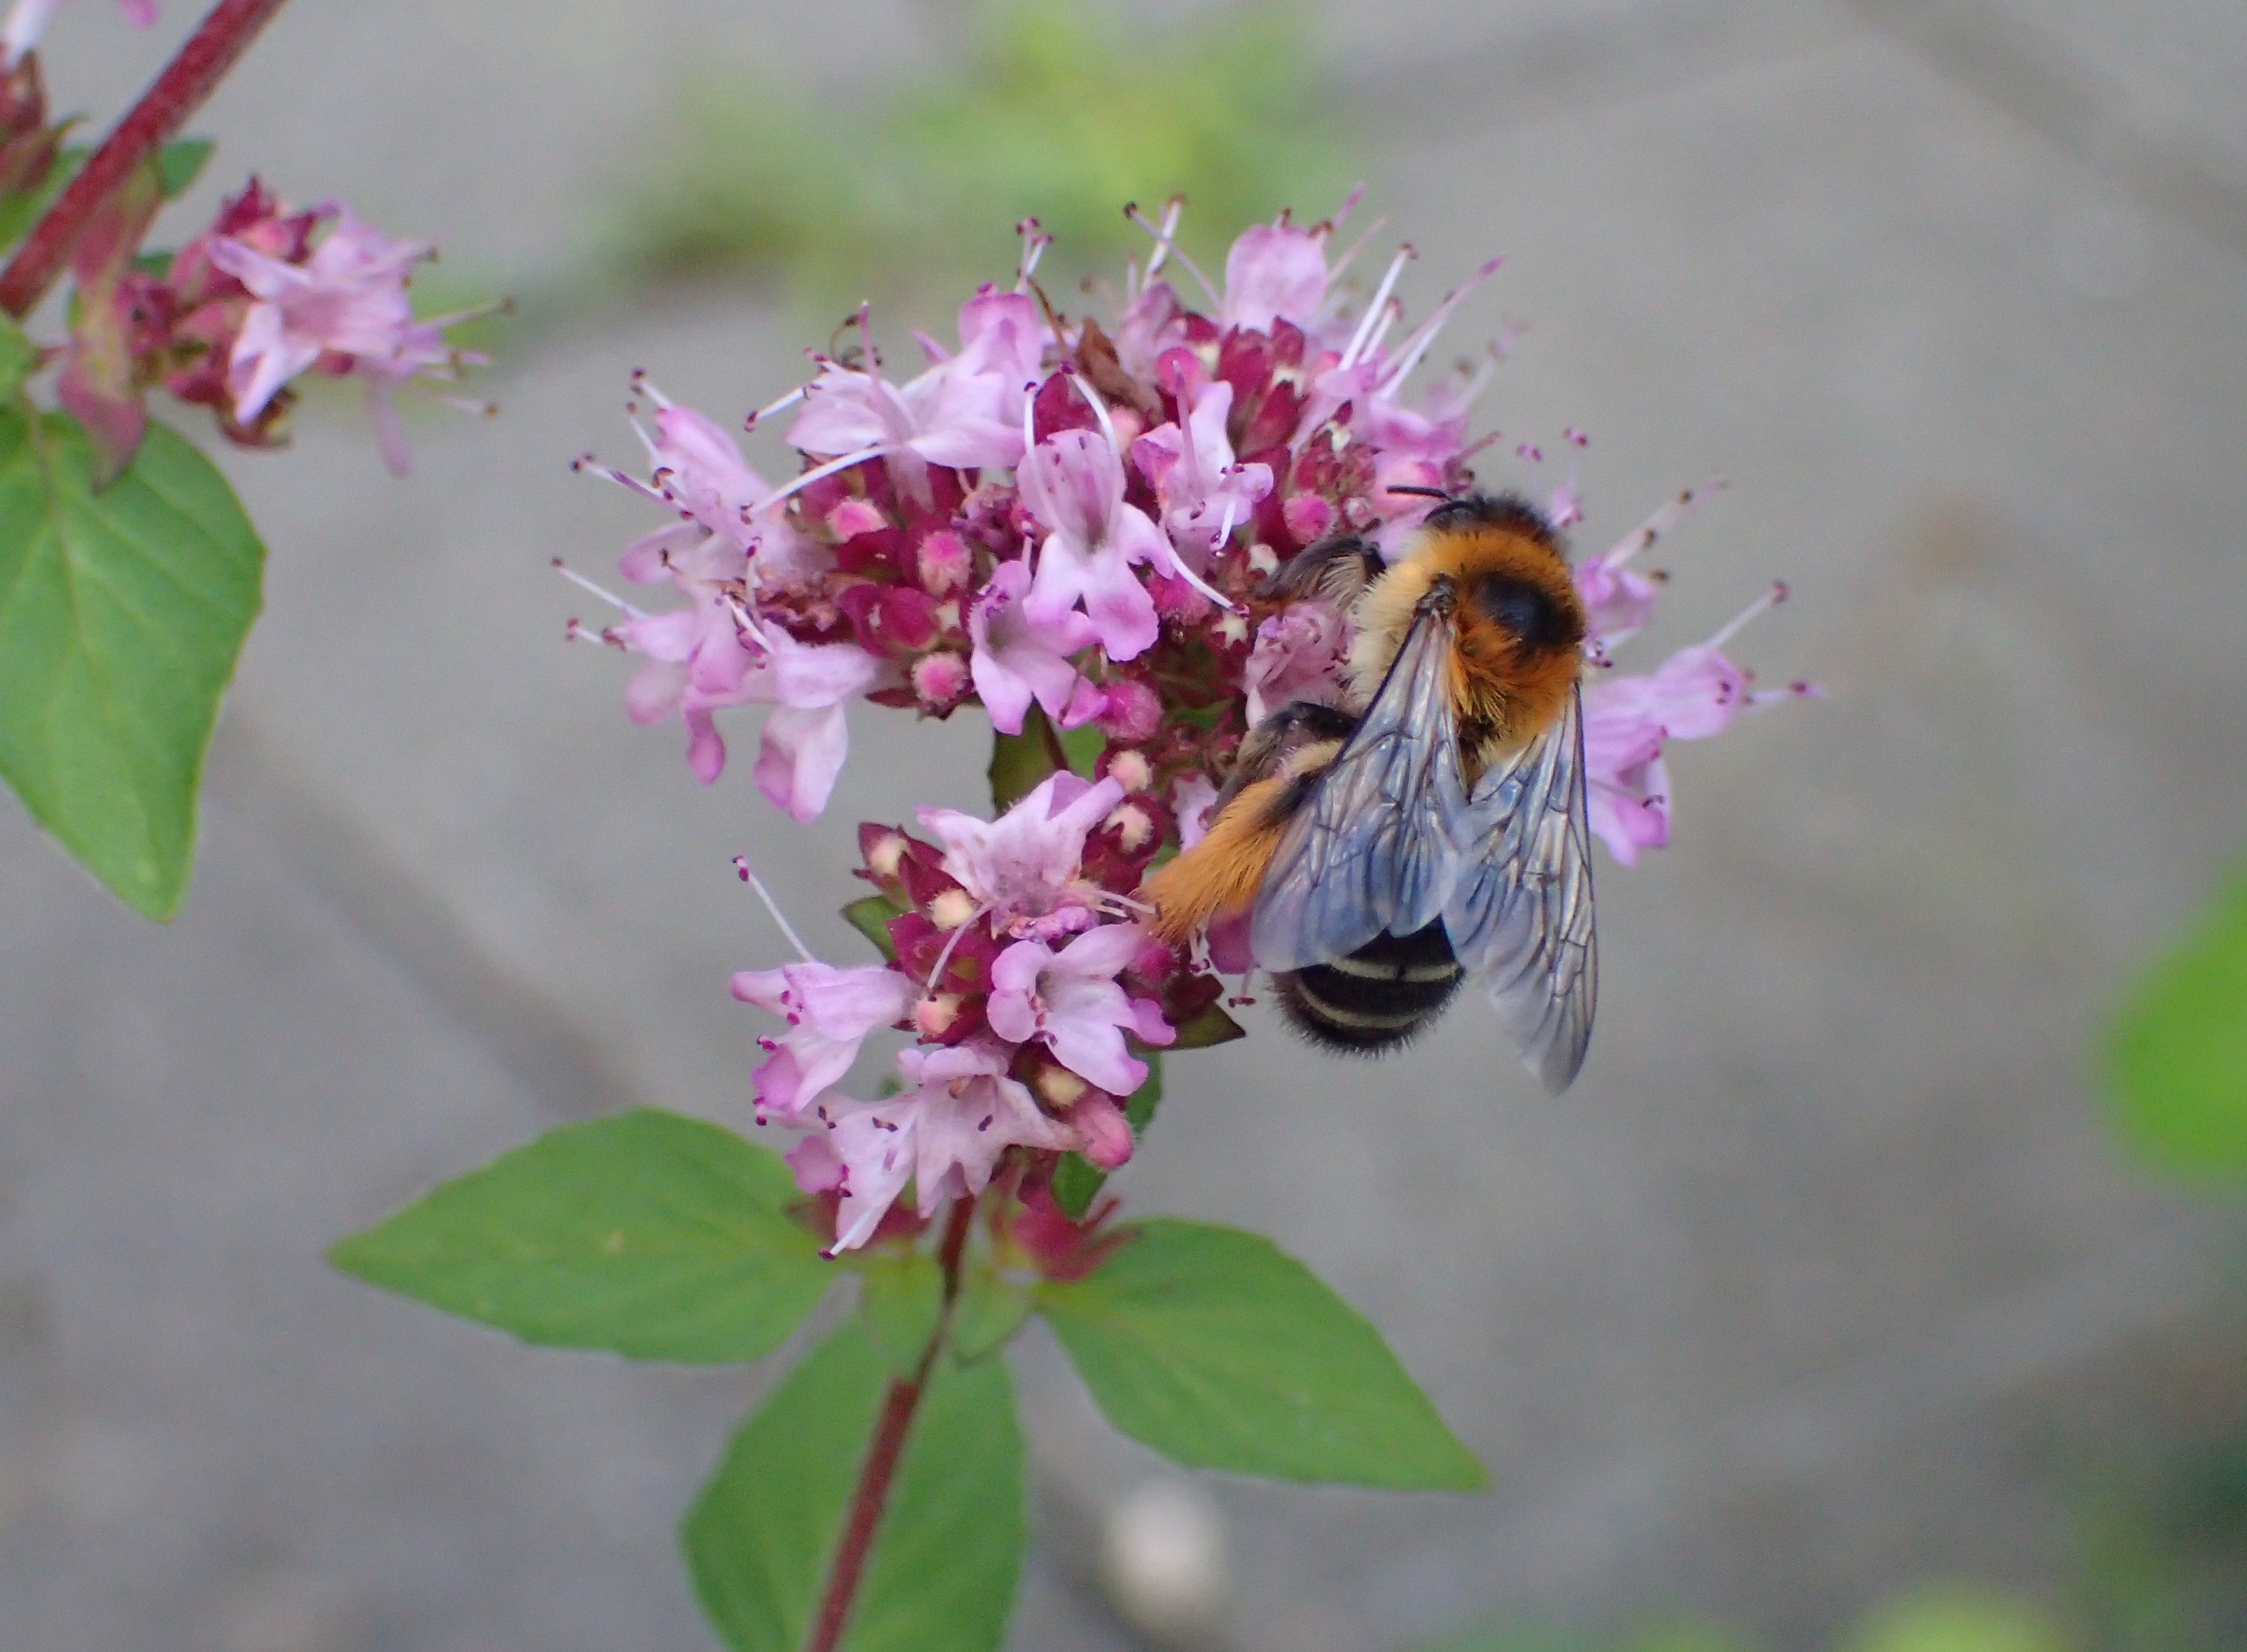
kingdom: Animalia
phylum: Arthropoda
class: Insecta
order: Hymenoptera
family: Melittidae
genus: Dasypoda
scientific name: Dasypoda hirtipes
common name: Pragtbuksebi
